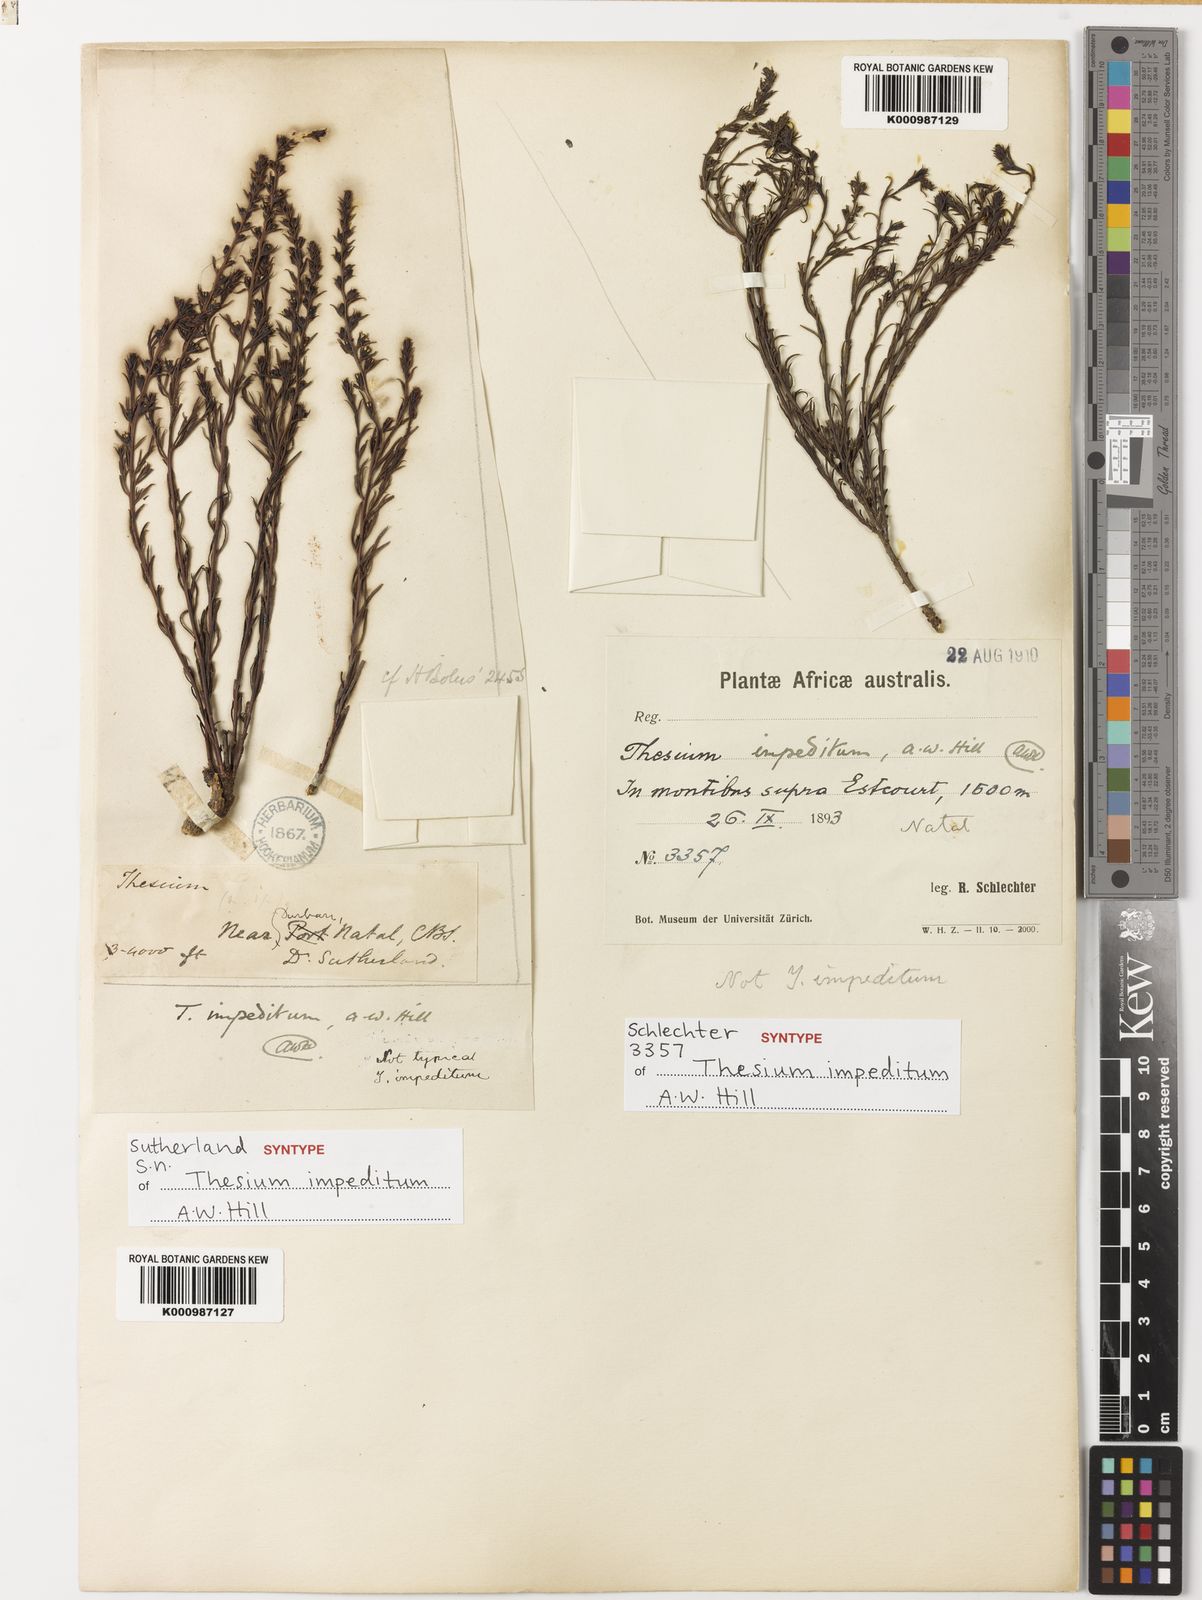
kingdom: Plantae
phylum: Tracheophyta
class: Magnoliopsida
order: Santalales
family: Thesiaceae
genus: Thesium
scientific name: Thesium impeditum
